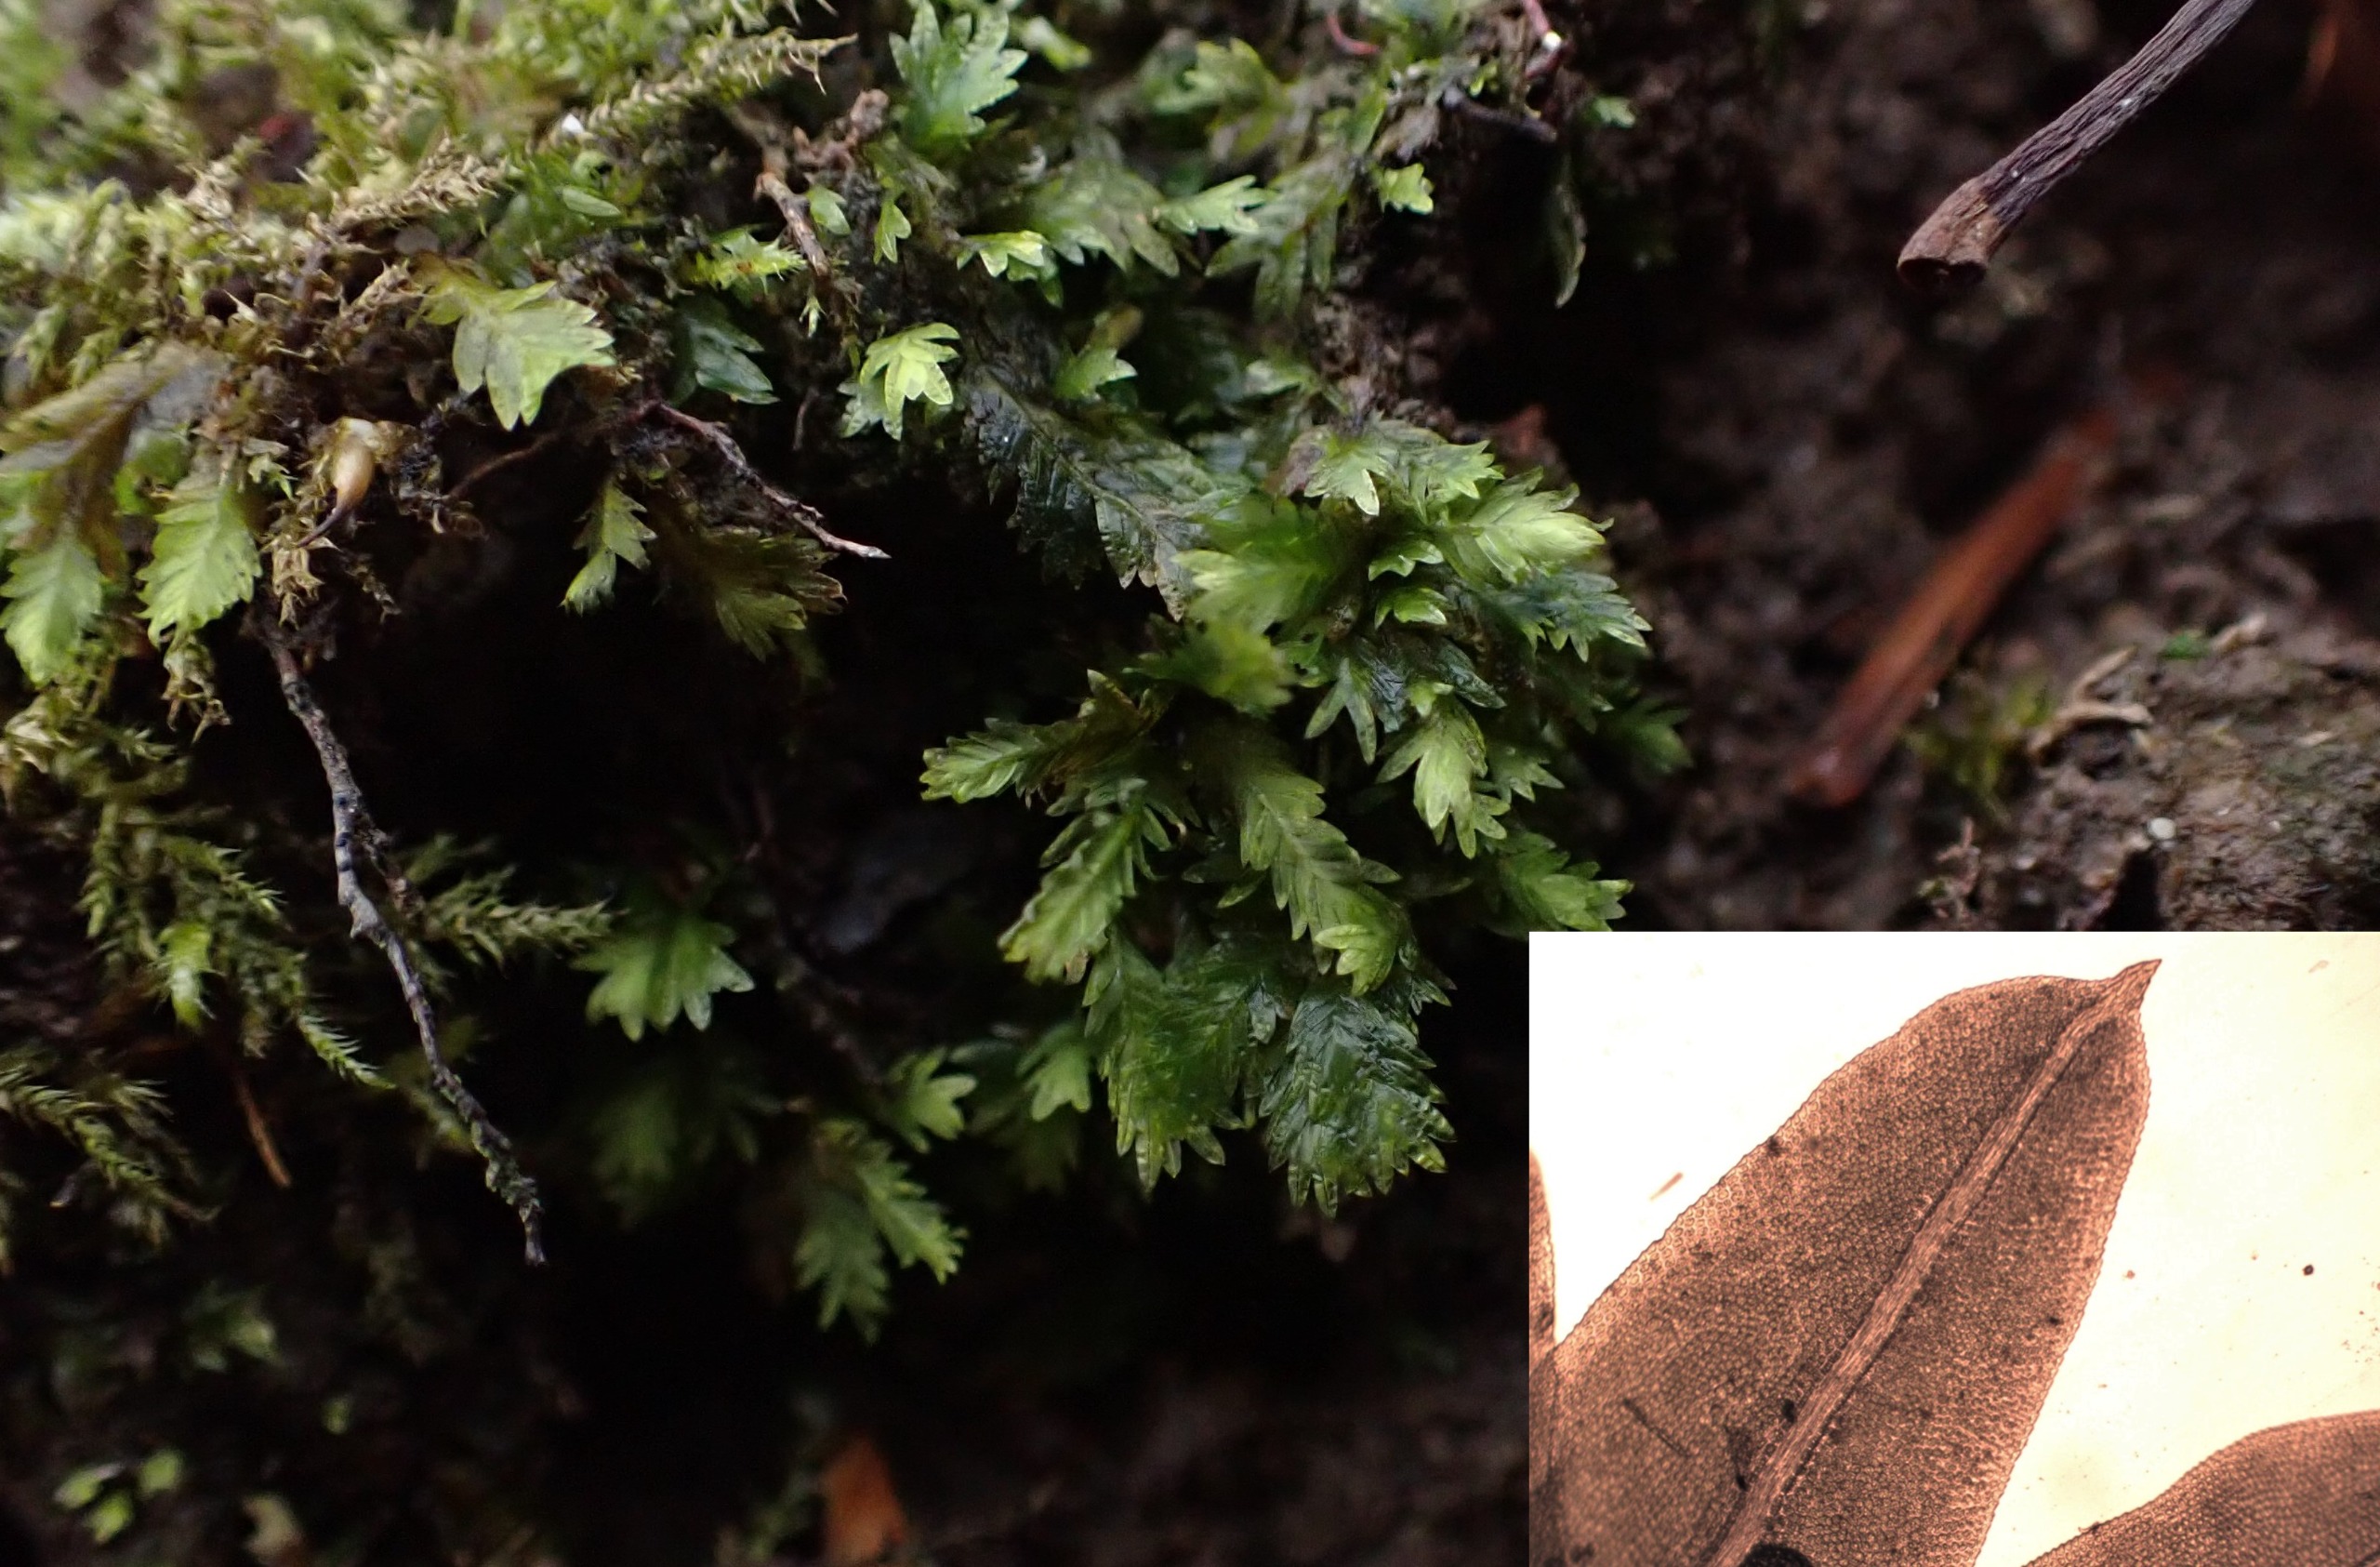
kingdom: Plantae
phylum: Bryophyta
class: Bryopsida
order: Dicranales
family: Fissidentaceae
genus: Fissidens
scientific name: Fissidens taxifolius
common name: Taksbladet rademos
